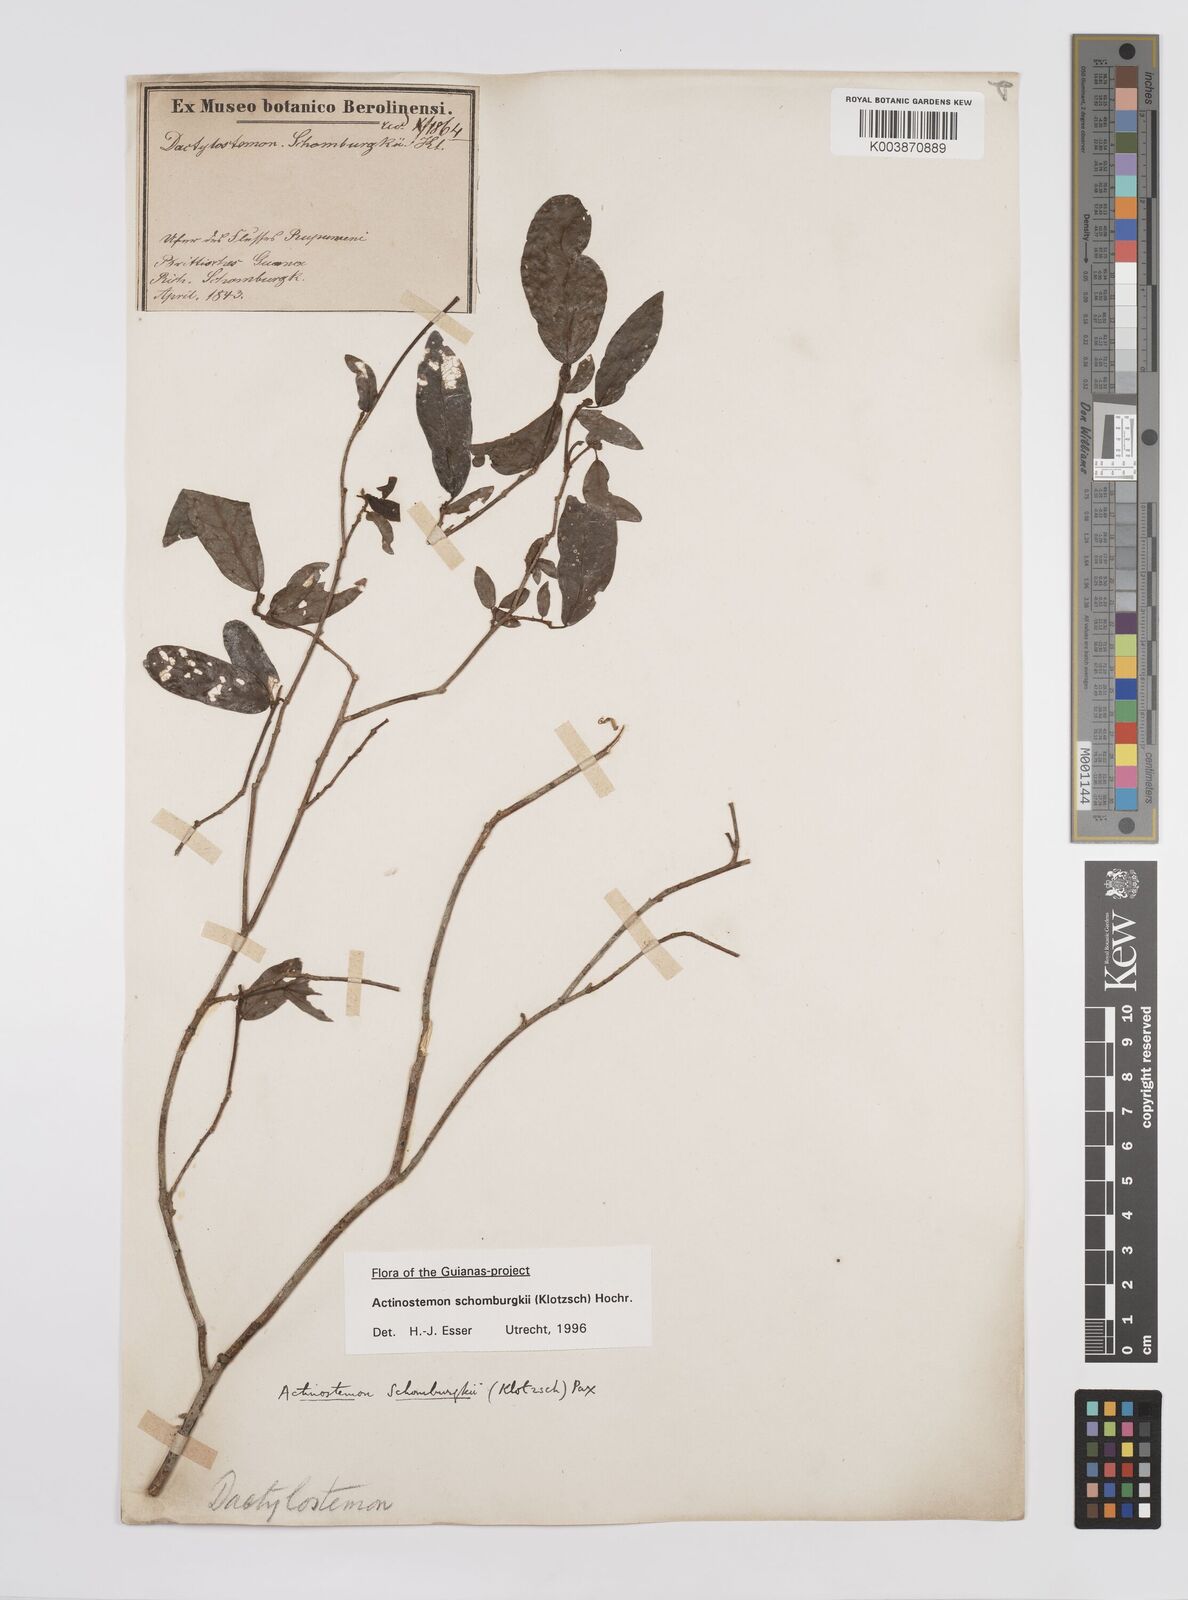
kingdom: Plantae
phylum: Tracheophyta
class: Magnoliopsida
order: Malpighiales
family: Euphorbiaceae
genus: Actinostemon
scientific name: Actinostemon schomburgkii
